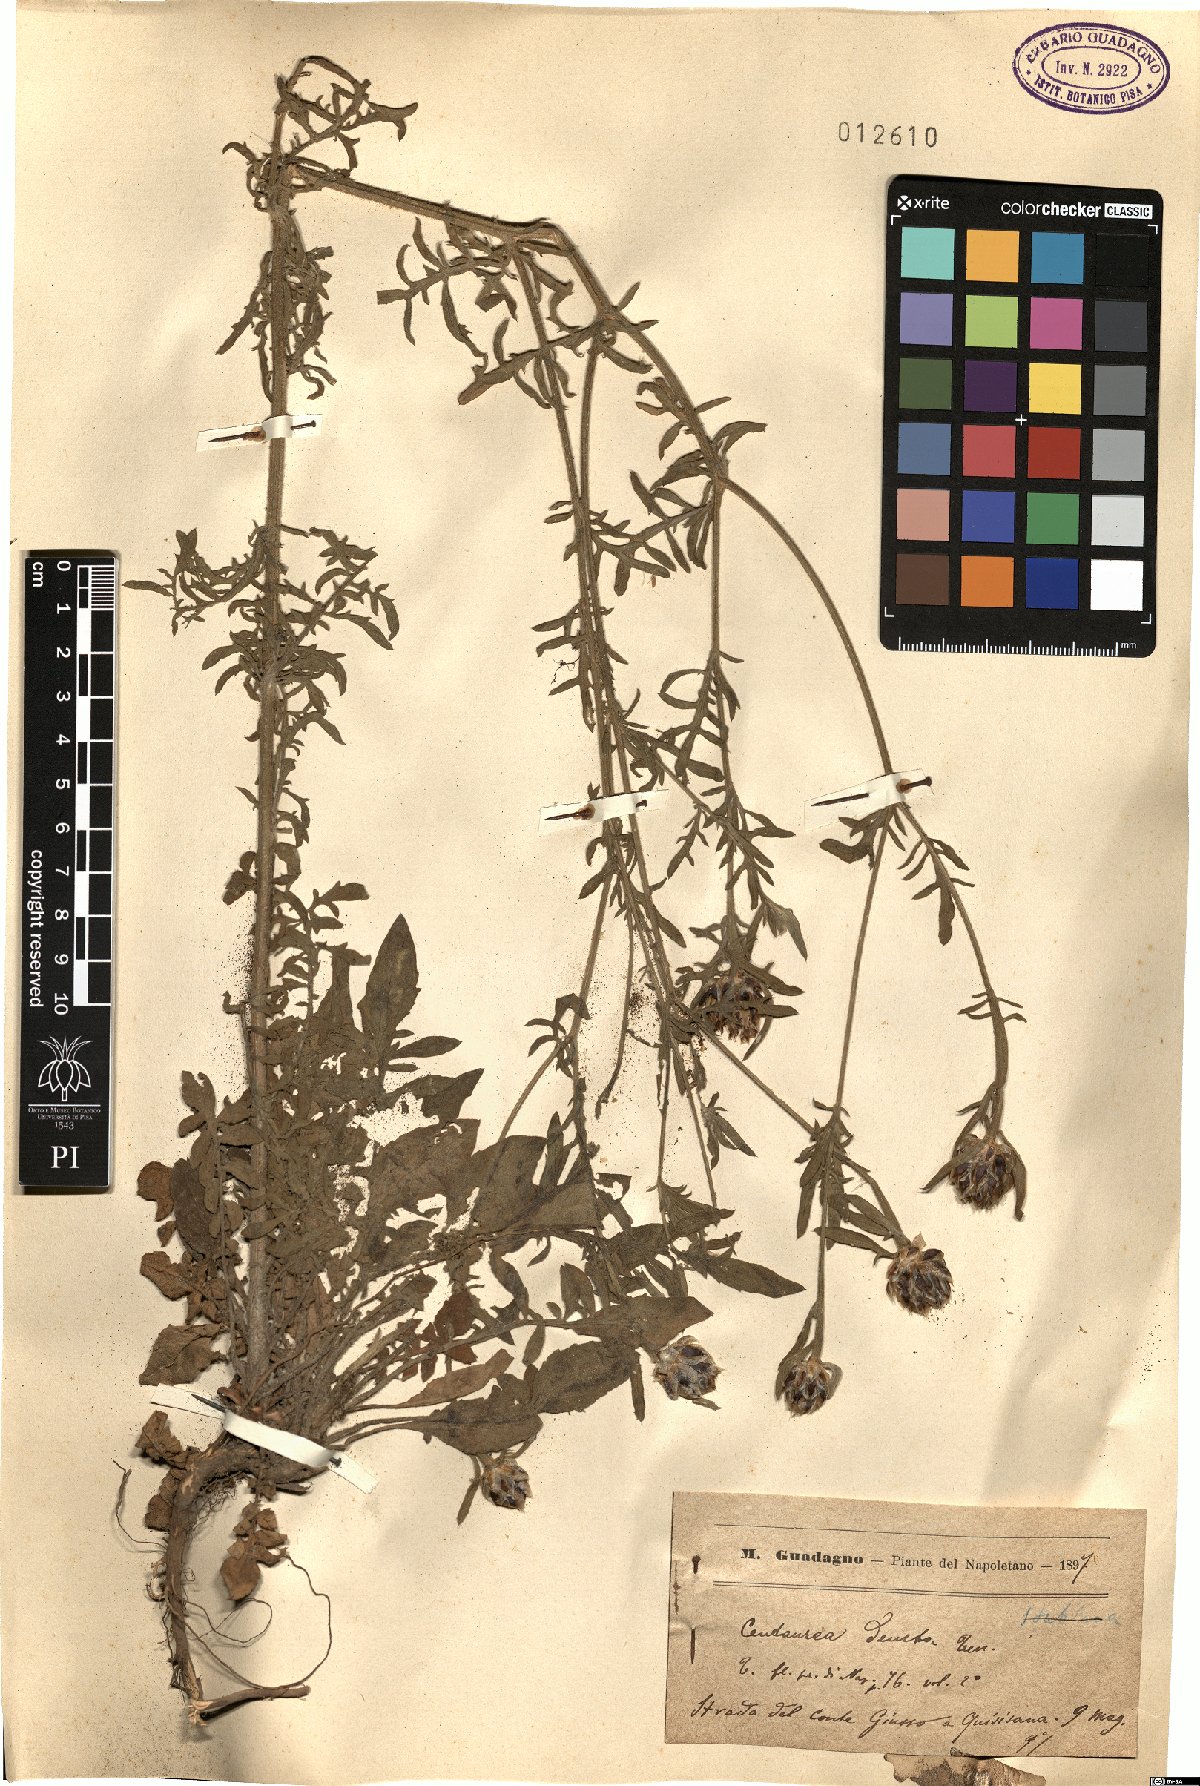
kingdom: Plantae
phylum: Tracheophyta
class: Magnoliopsida
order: Asterales
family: Asteraceae
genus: Centaurea
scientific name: Centaurea deusta
